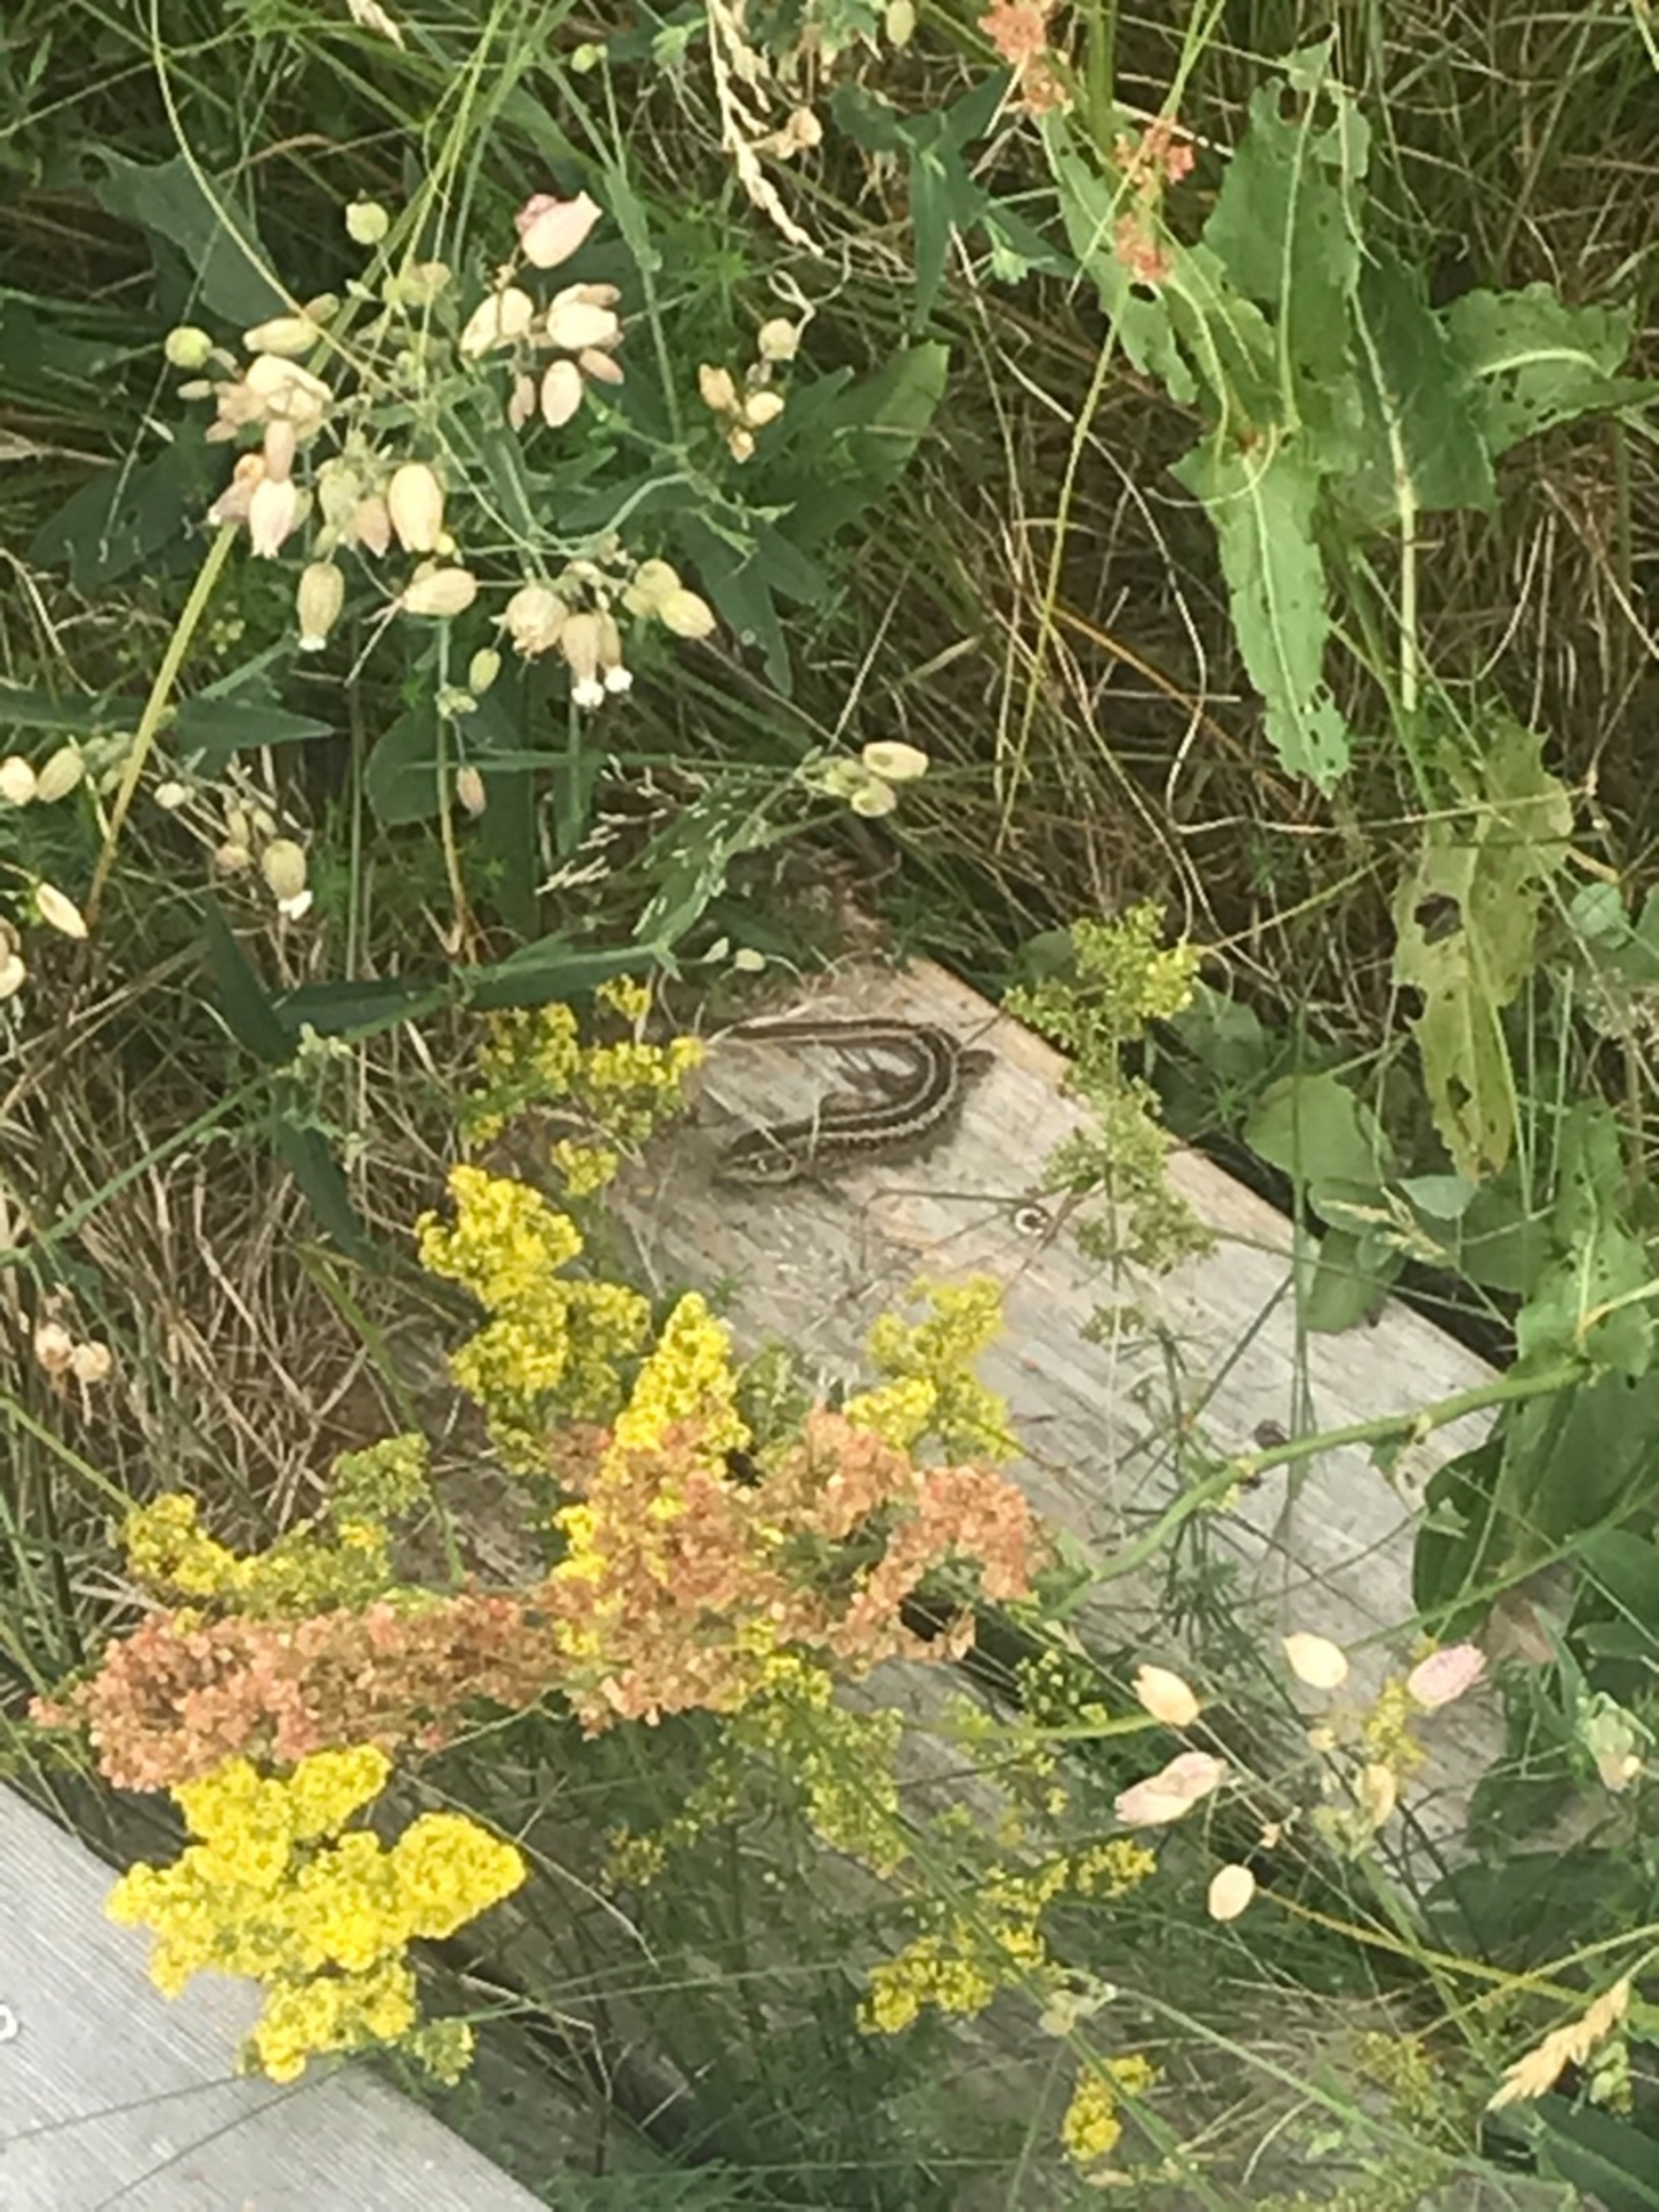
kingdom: Animalia
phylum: Chordata
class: Squamata
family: Lacertidae
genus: Lacerta
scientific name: Lacerta agilis
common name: Markfirben
